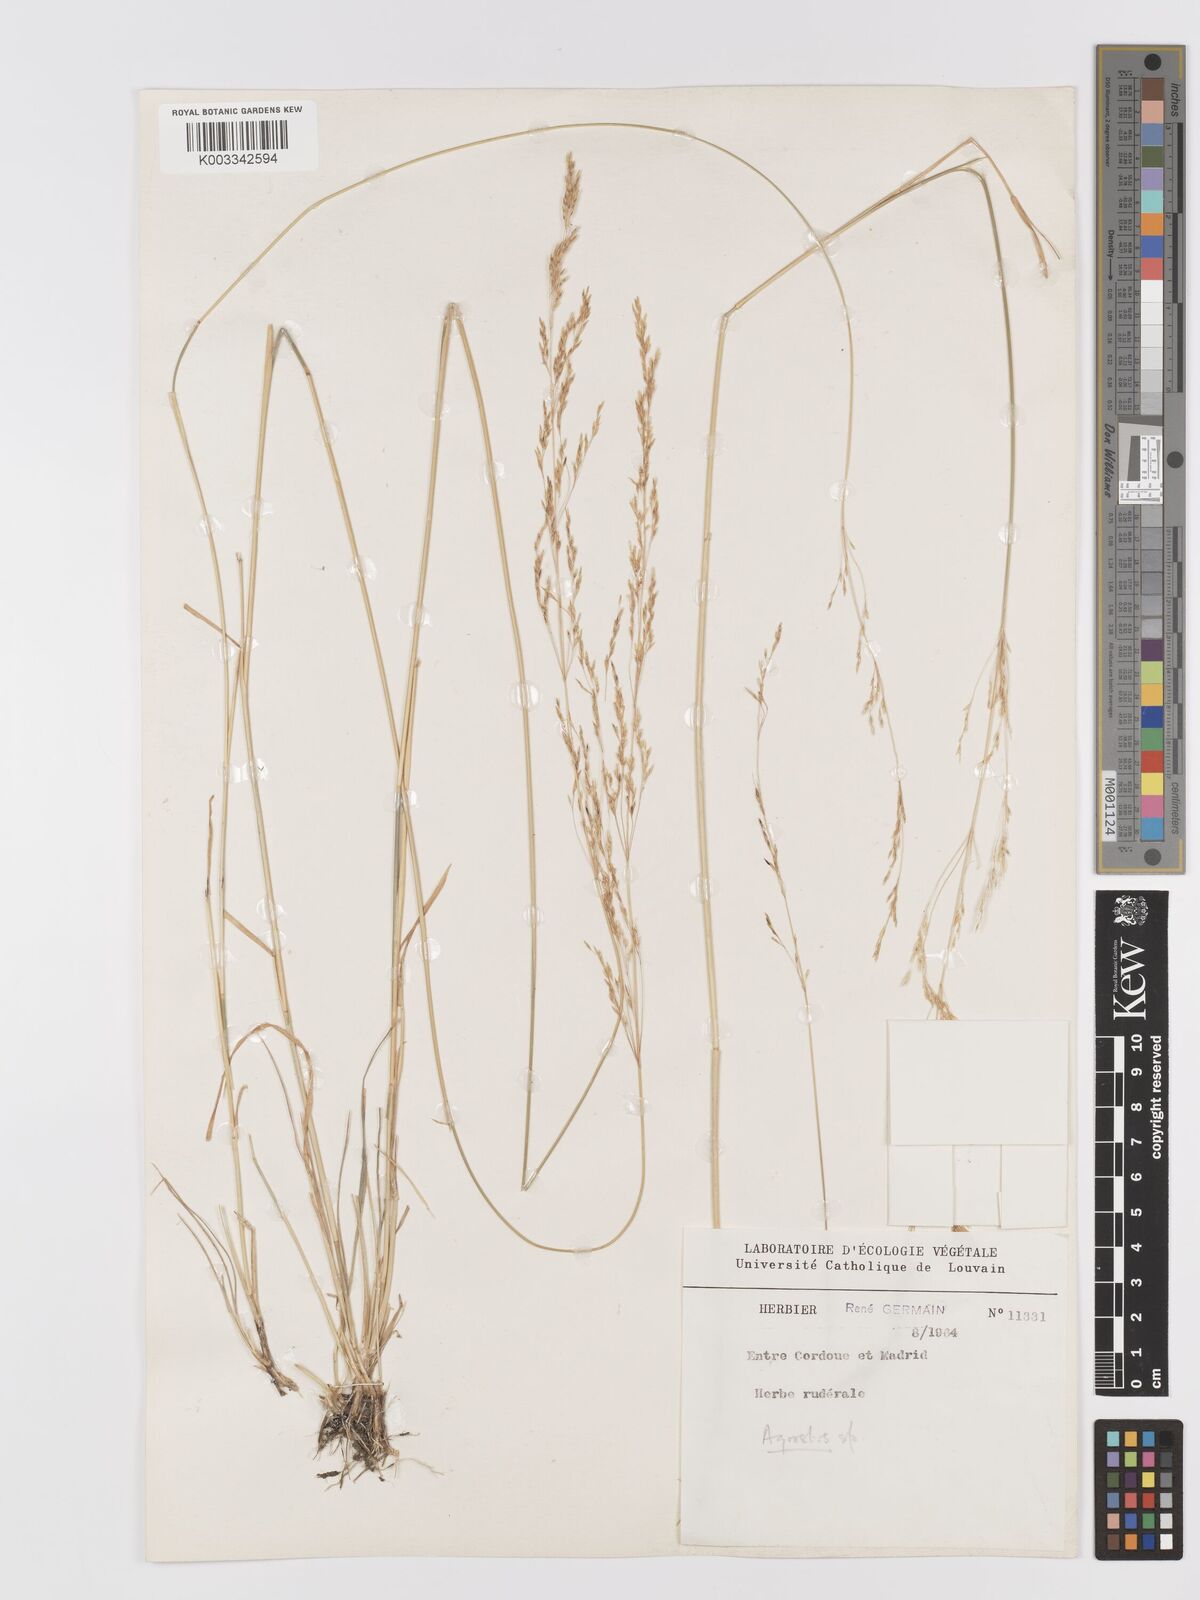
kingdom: Plantae
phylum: Tracheophyta
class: Liliopsida
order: Poales
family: Poaceae
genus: Agrostis
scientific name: Agrostis
